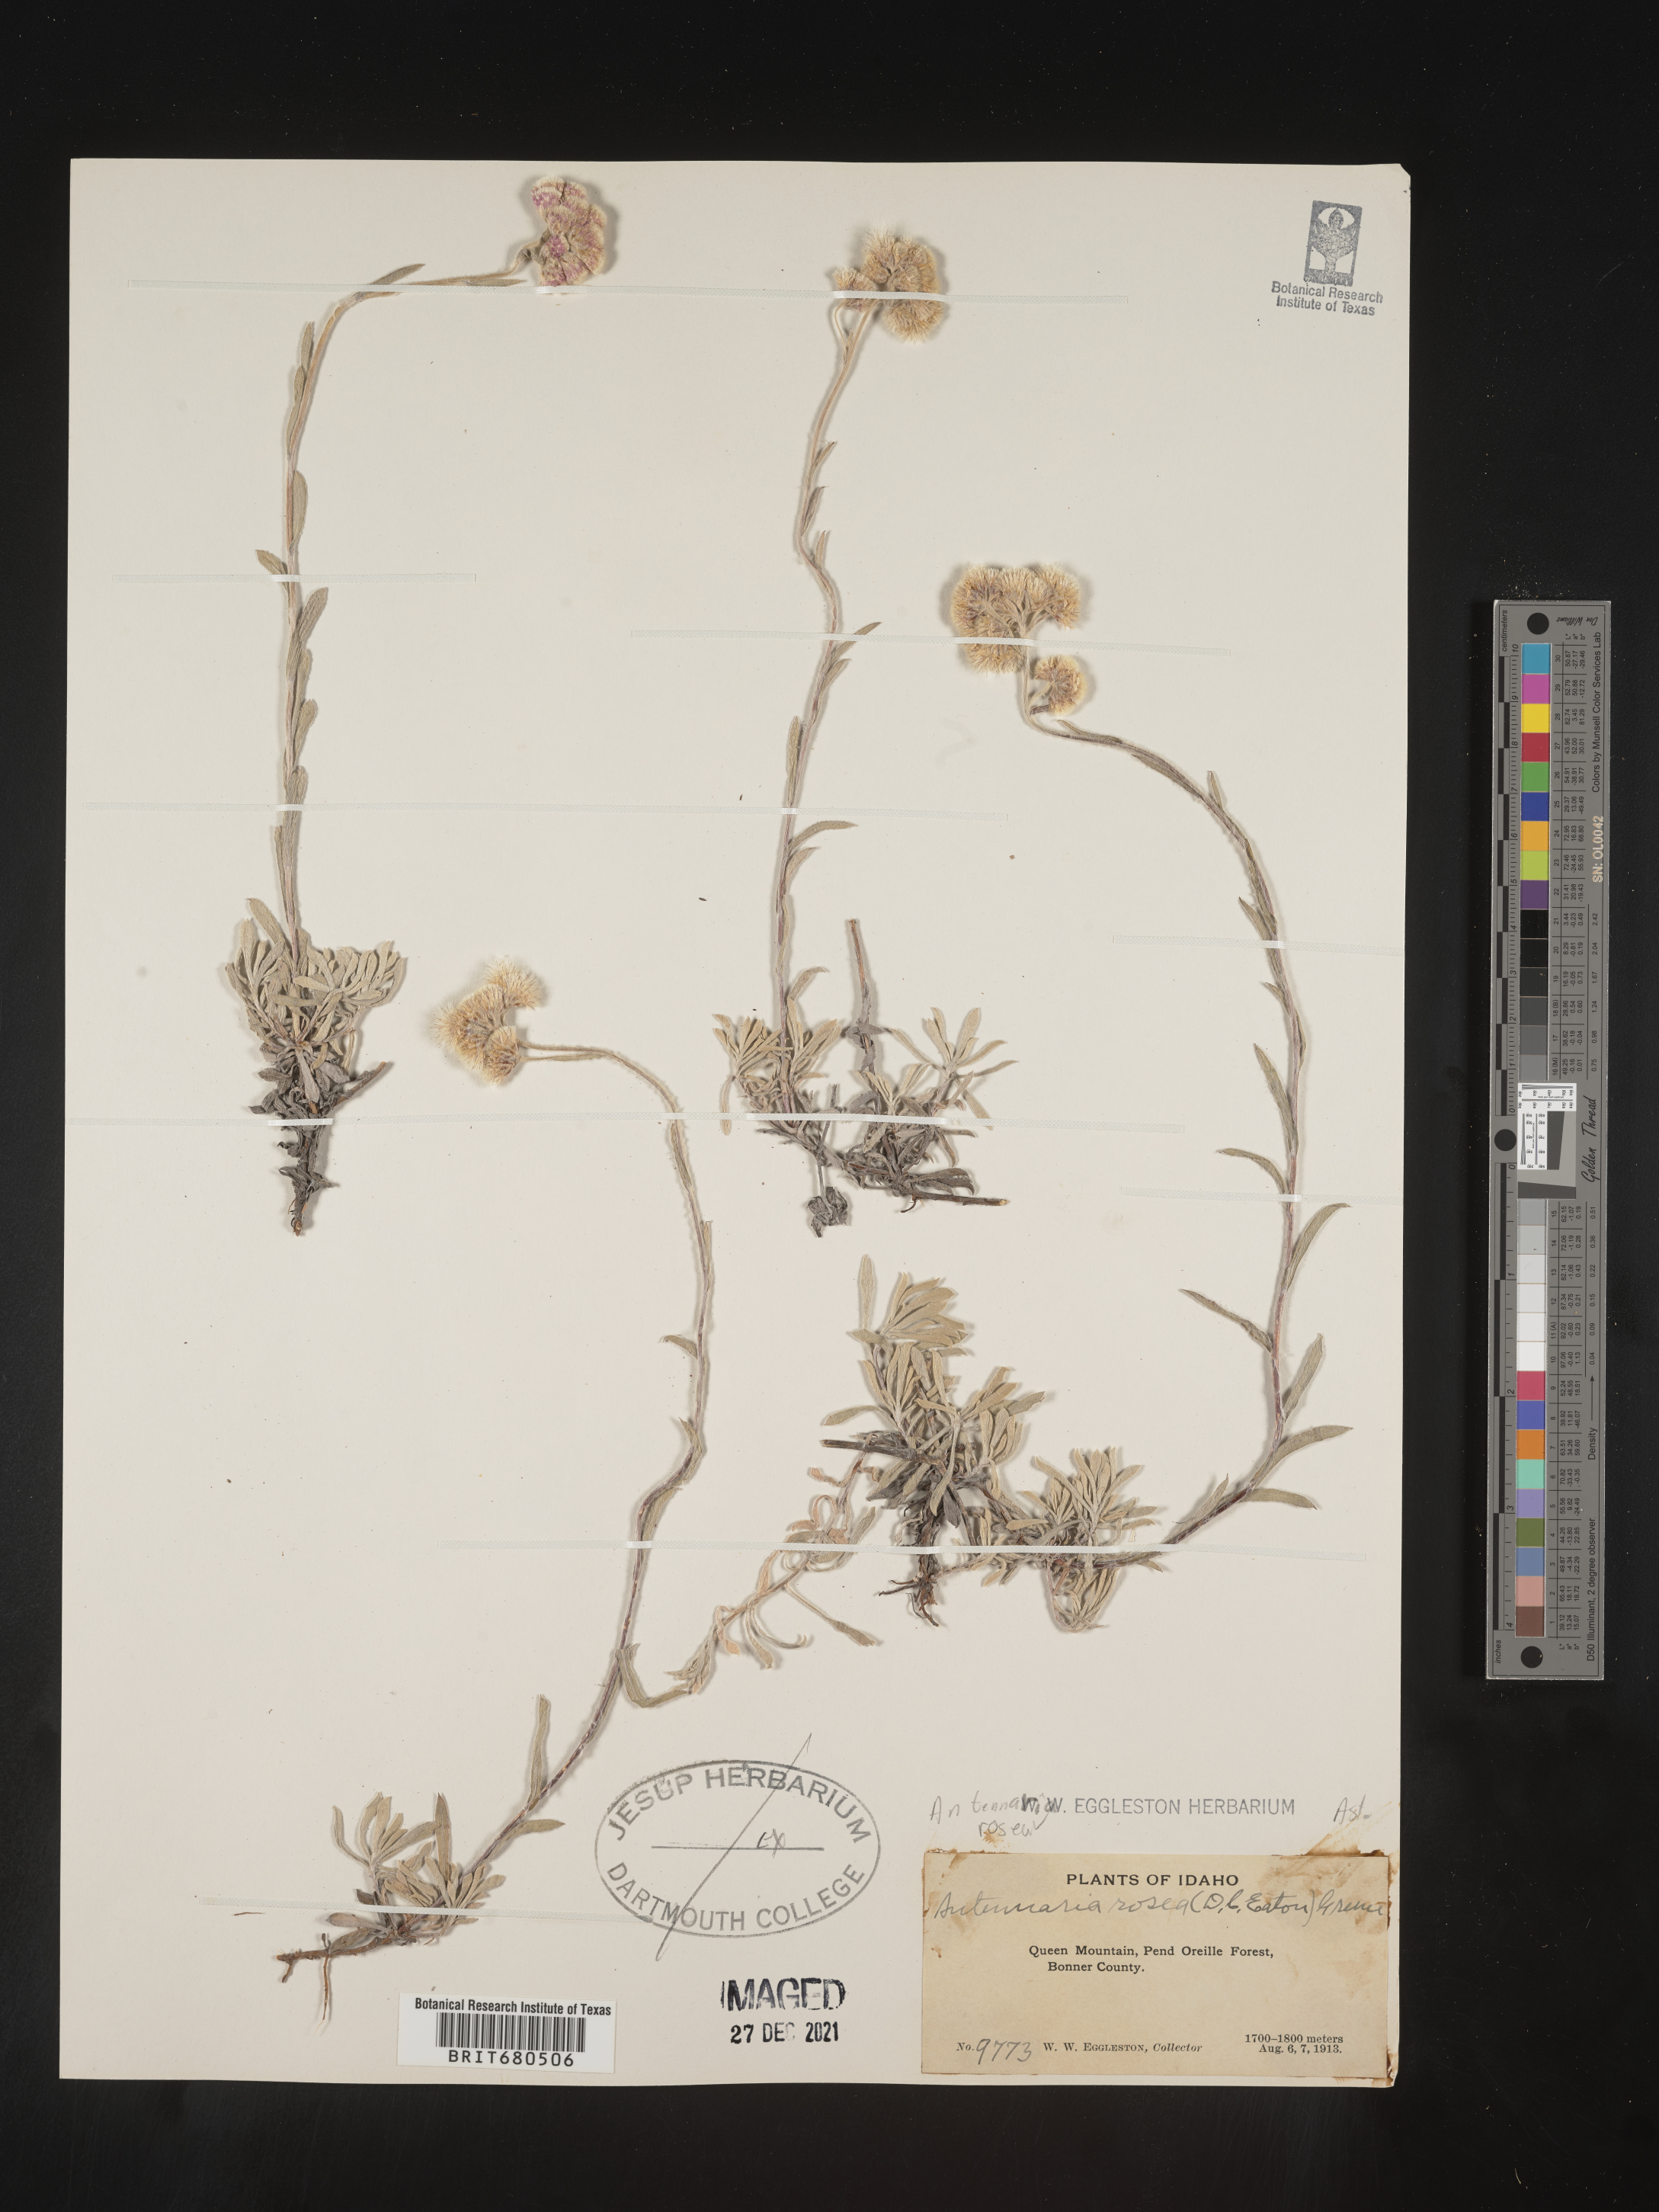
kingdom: Plantae
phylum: Tracheophyta
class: Magnoliopsida
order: Asterales
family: Asteraceae
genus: Antennaria
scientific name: Antennaria rosea
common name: Rosy pussytoes
